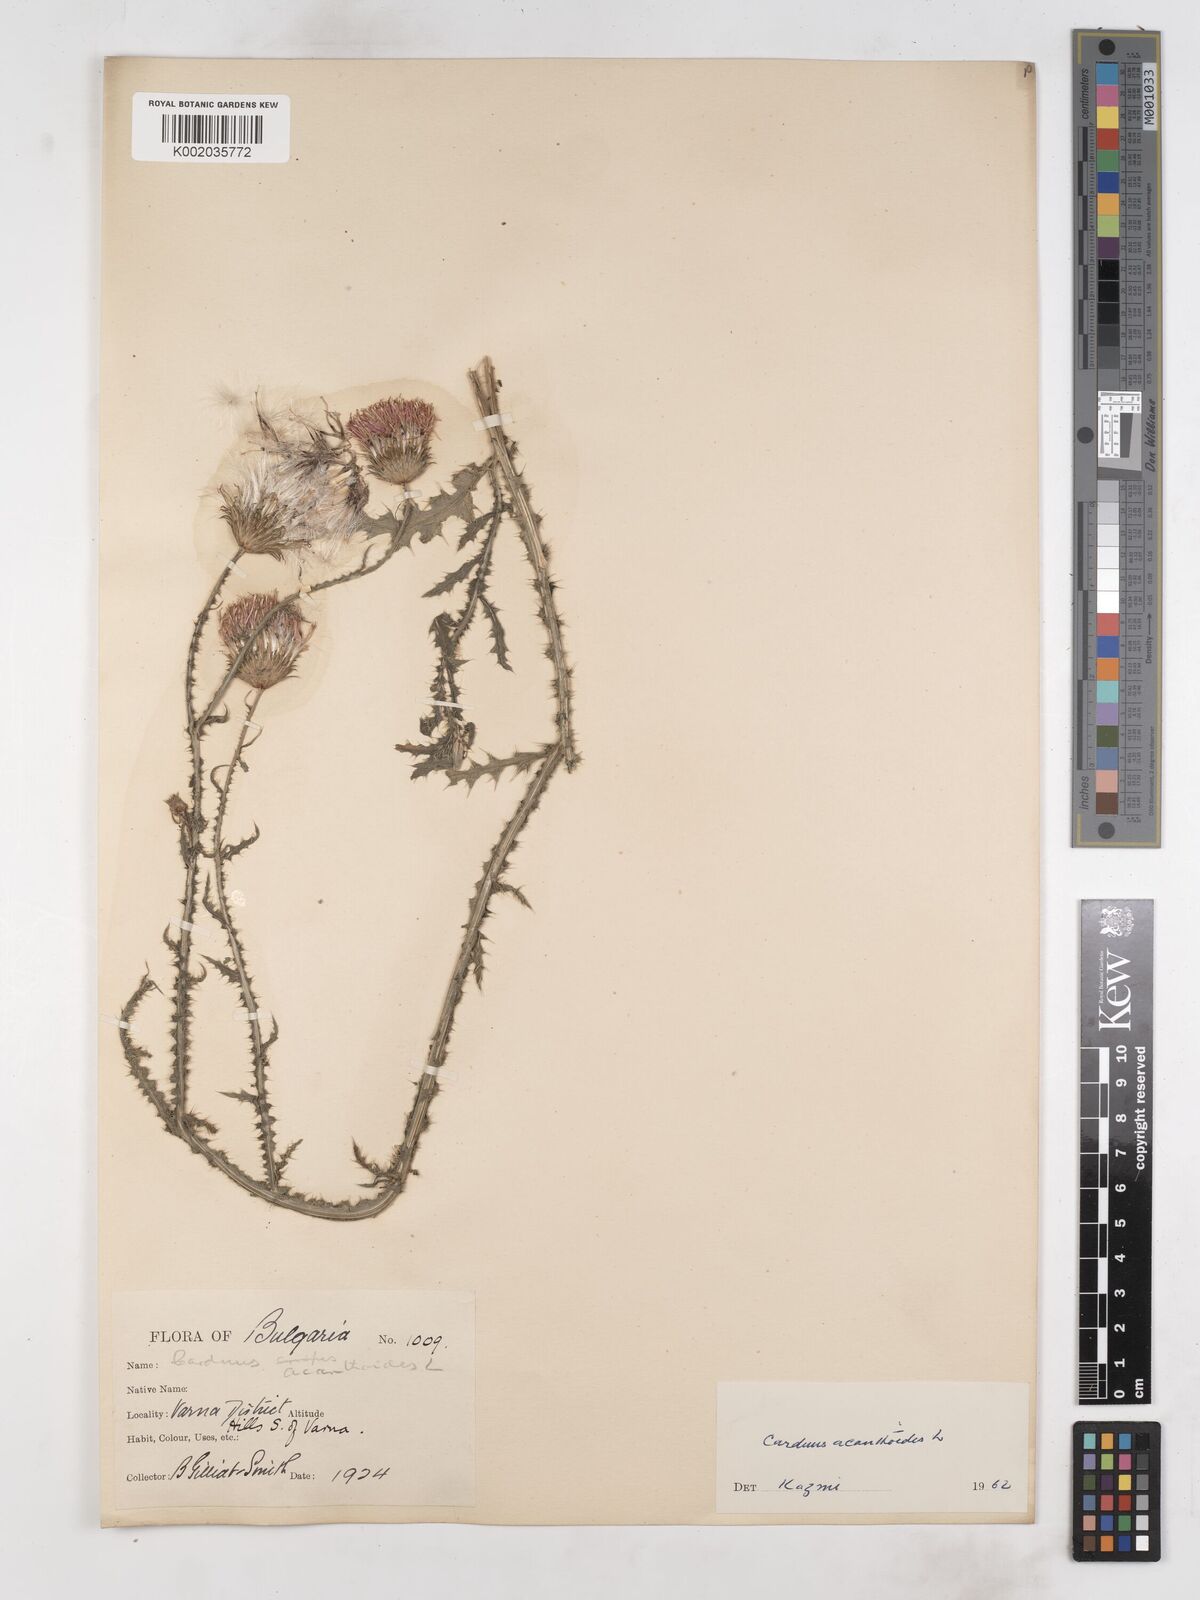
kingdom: Plantae
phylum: Tracheophyta
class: Magnoliopsida
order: Asterales
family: Asteraceae
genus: Carduus
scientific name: Carduus acanthoides
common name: Plumeless thistle
